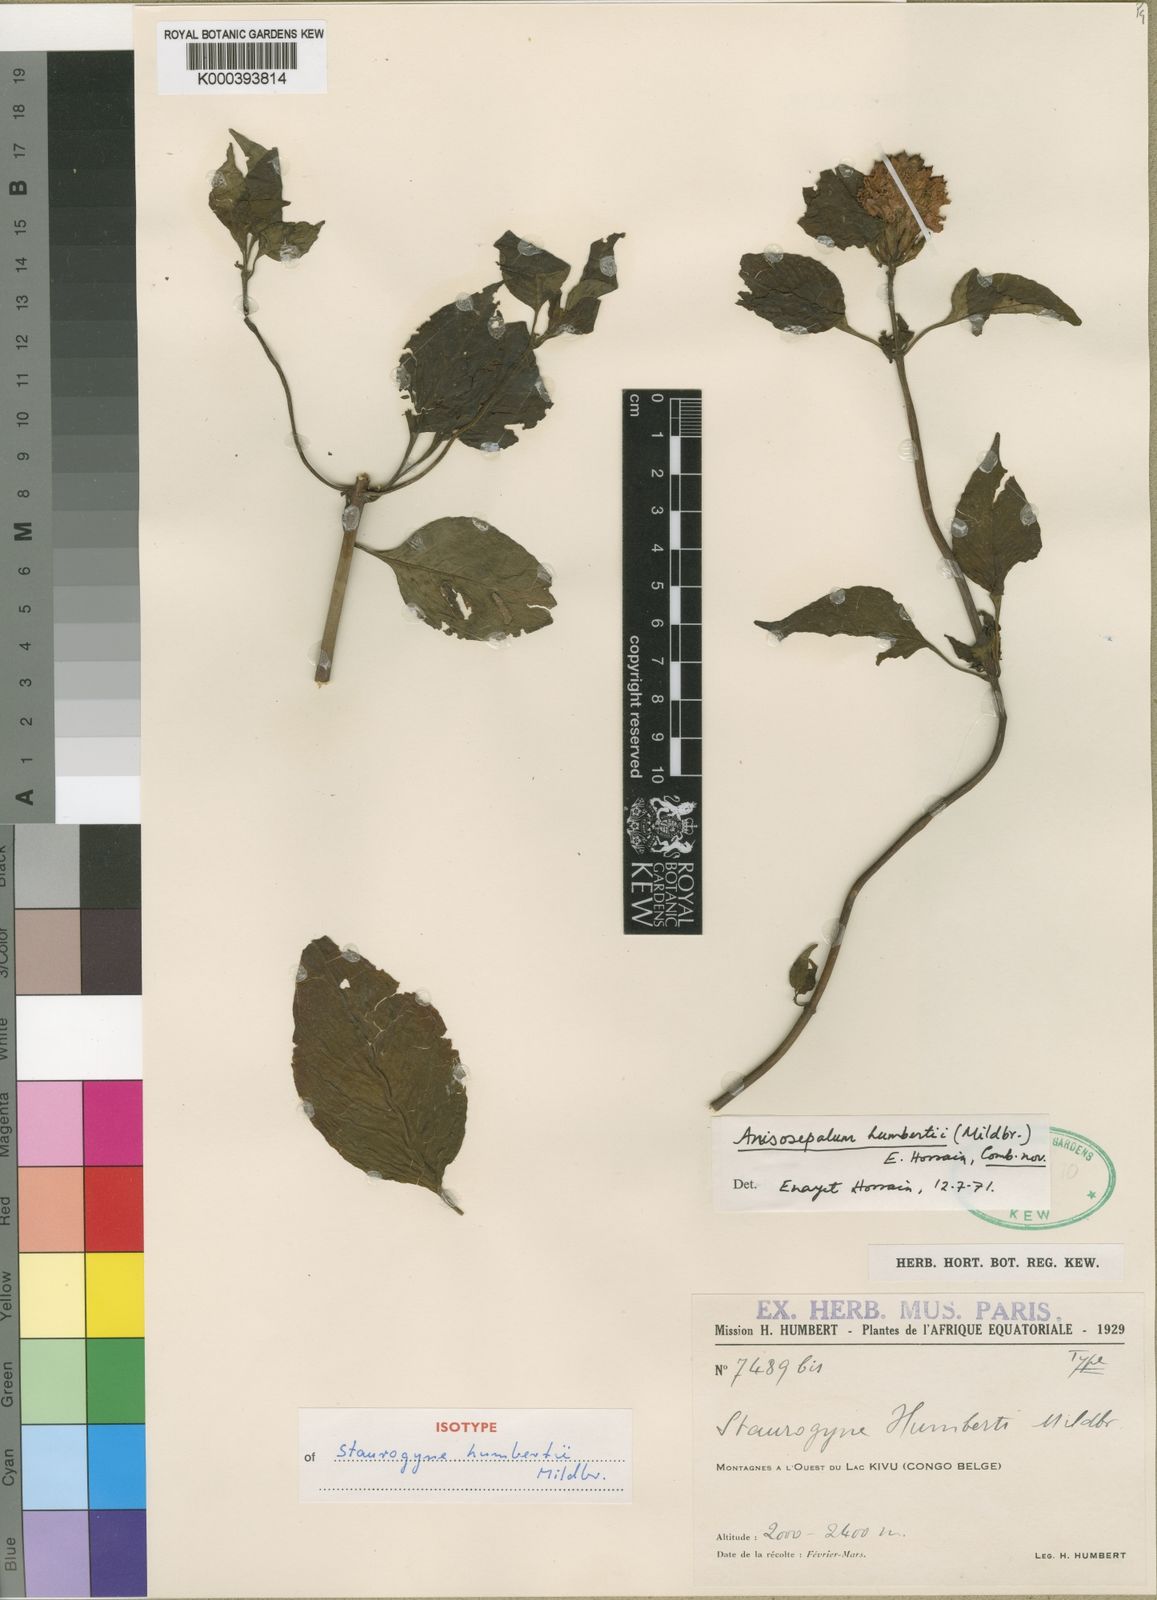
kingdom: Plantae
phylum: Tracheophyta
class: Magnoliopsida
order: Lamiales
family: Acanthaceae
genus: Anisosepalum
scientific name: Anisosepalum humbertii
